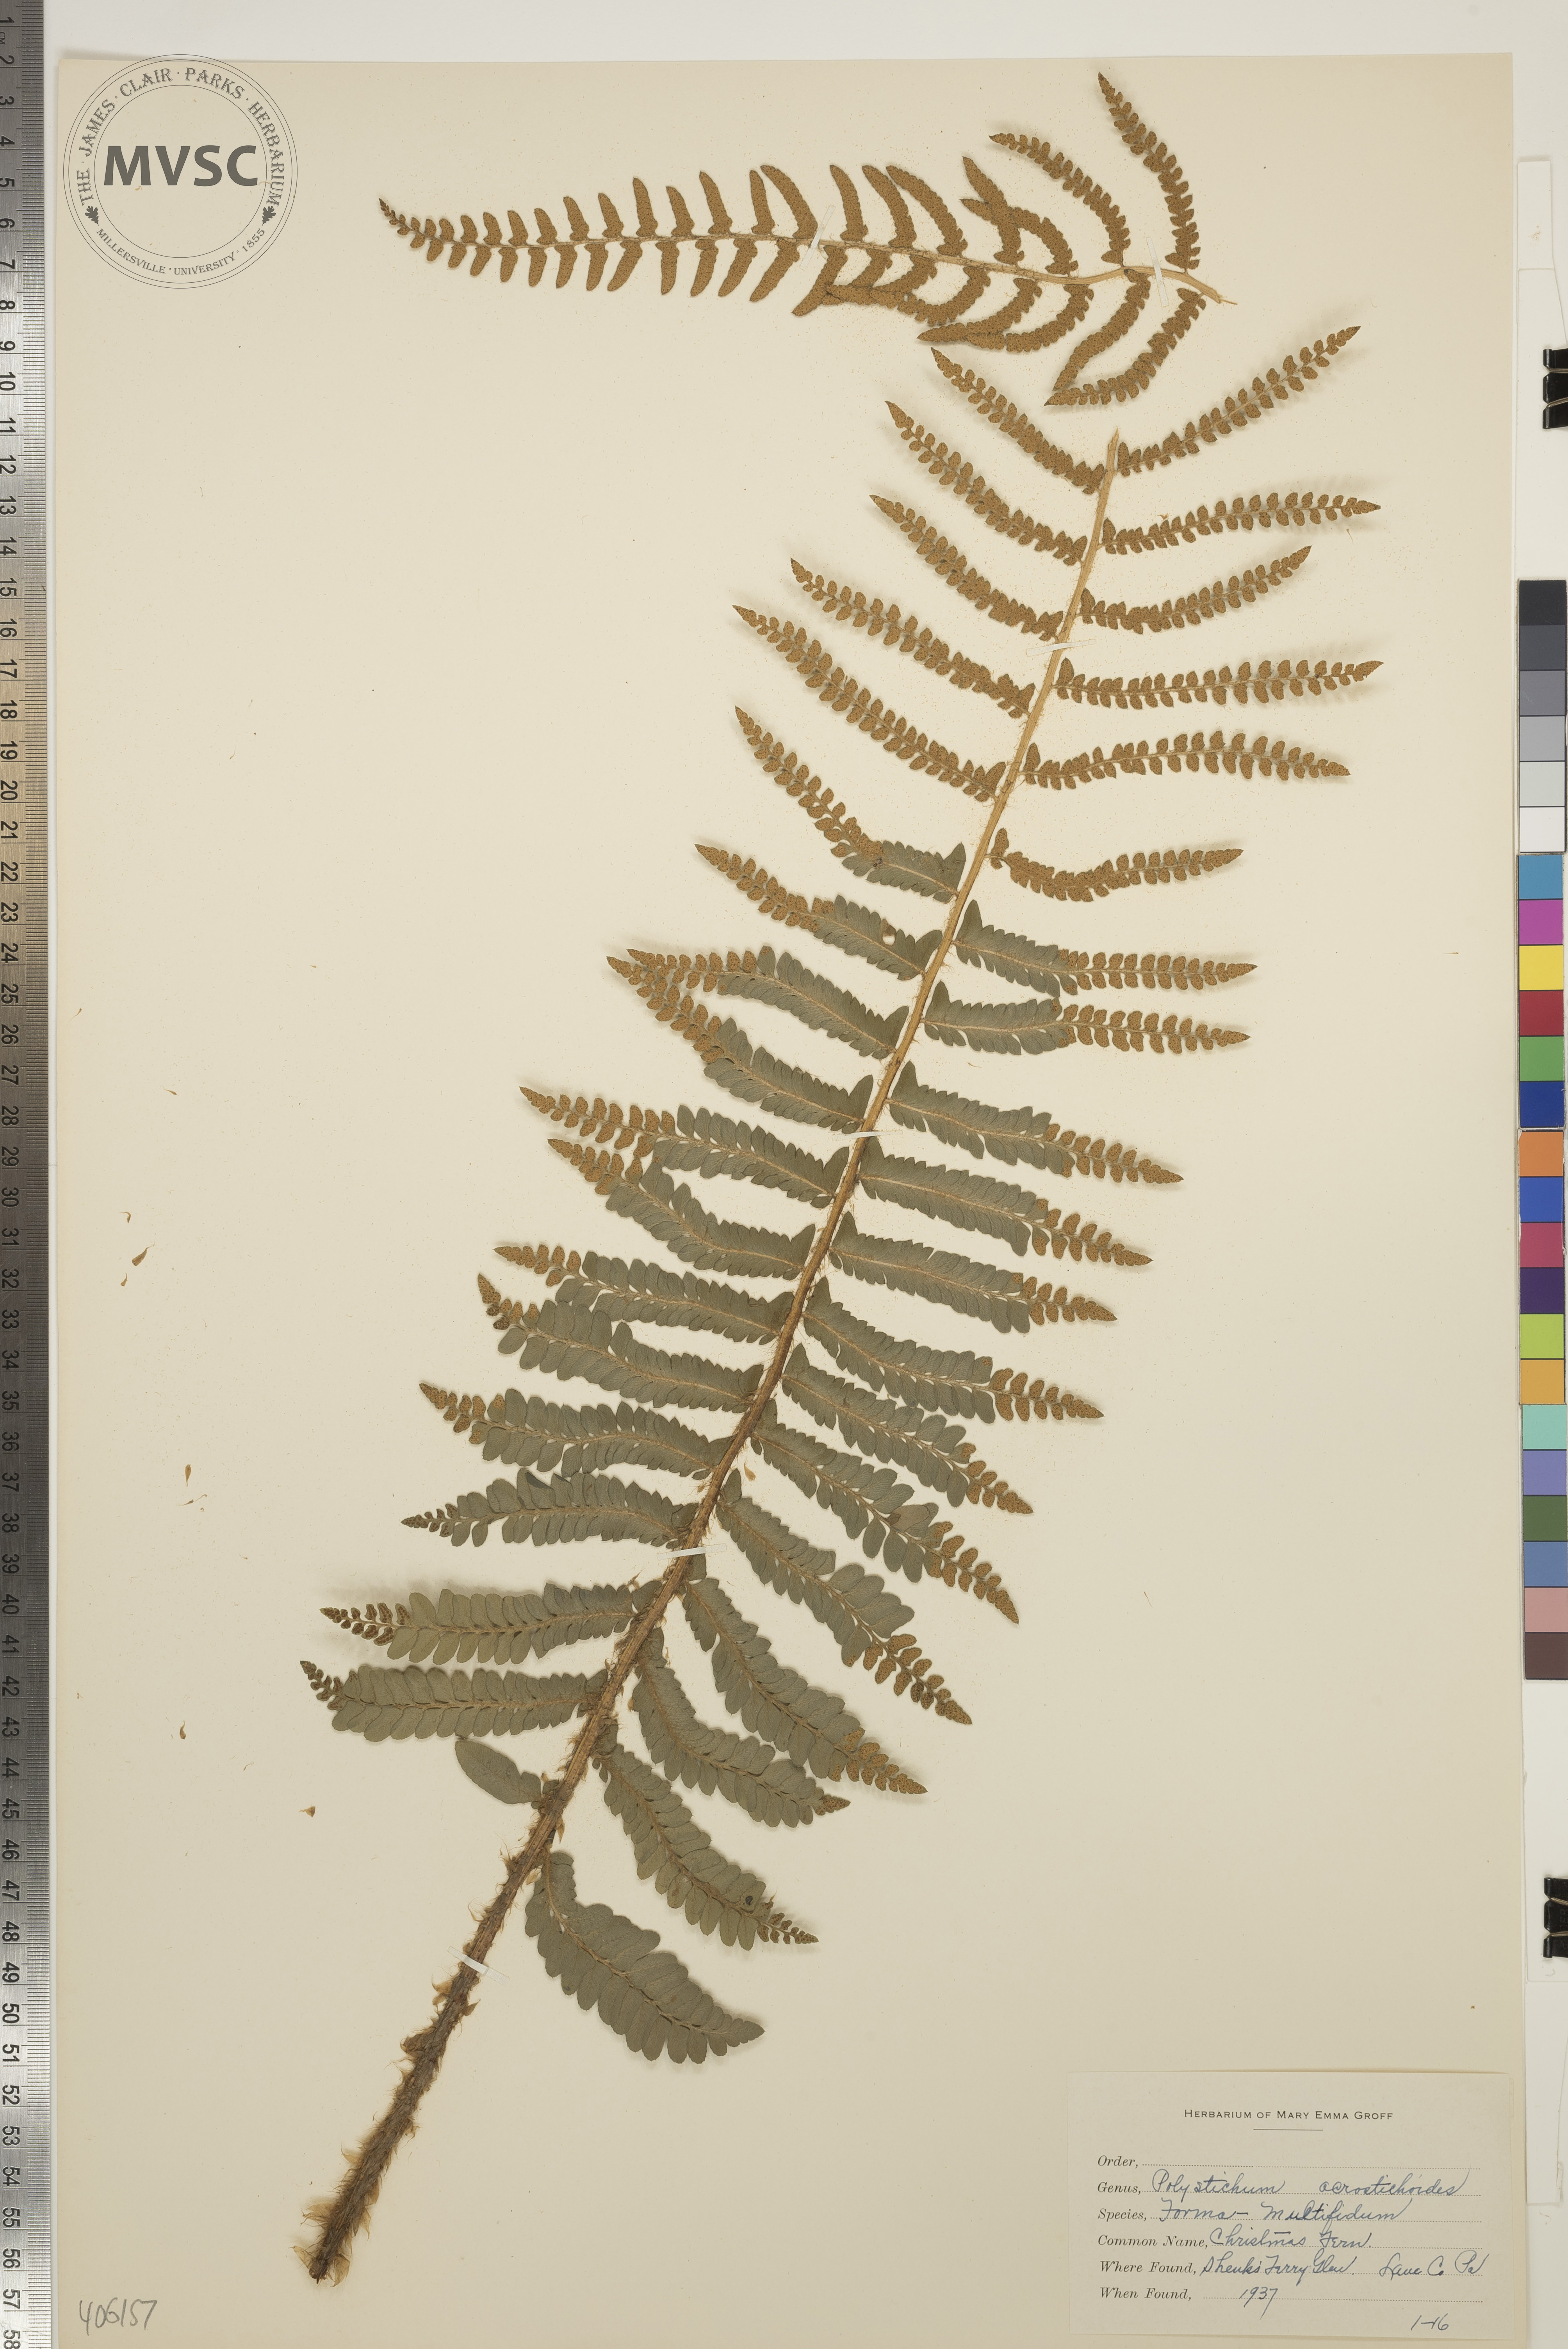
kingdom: Plantae
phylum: Tracheophyta
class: Polypodiopsida
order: Polypodiales
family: Dryopteridaceae
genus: Polystichum
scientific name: Polystichum acrostichoides
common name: Christmas Fern
